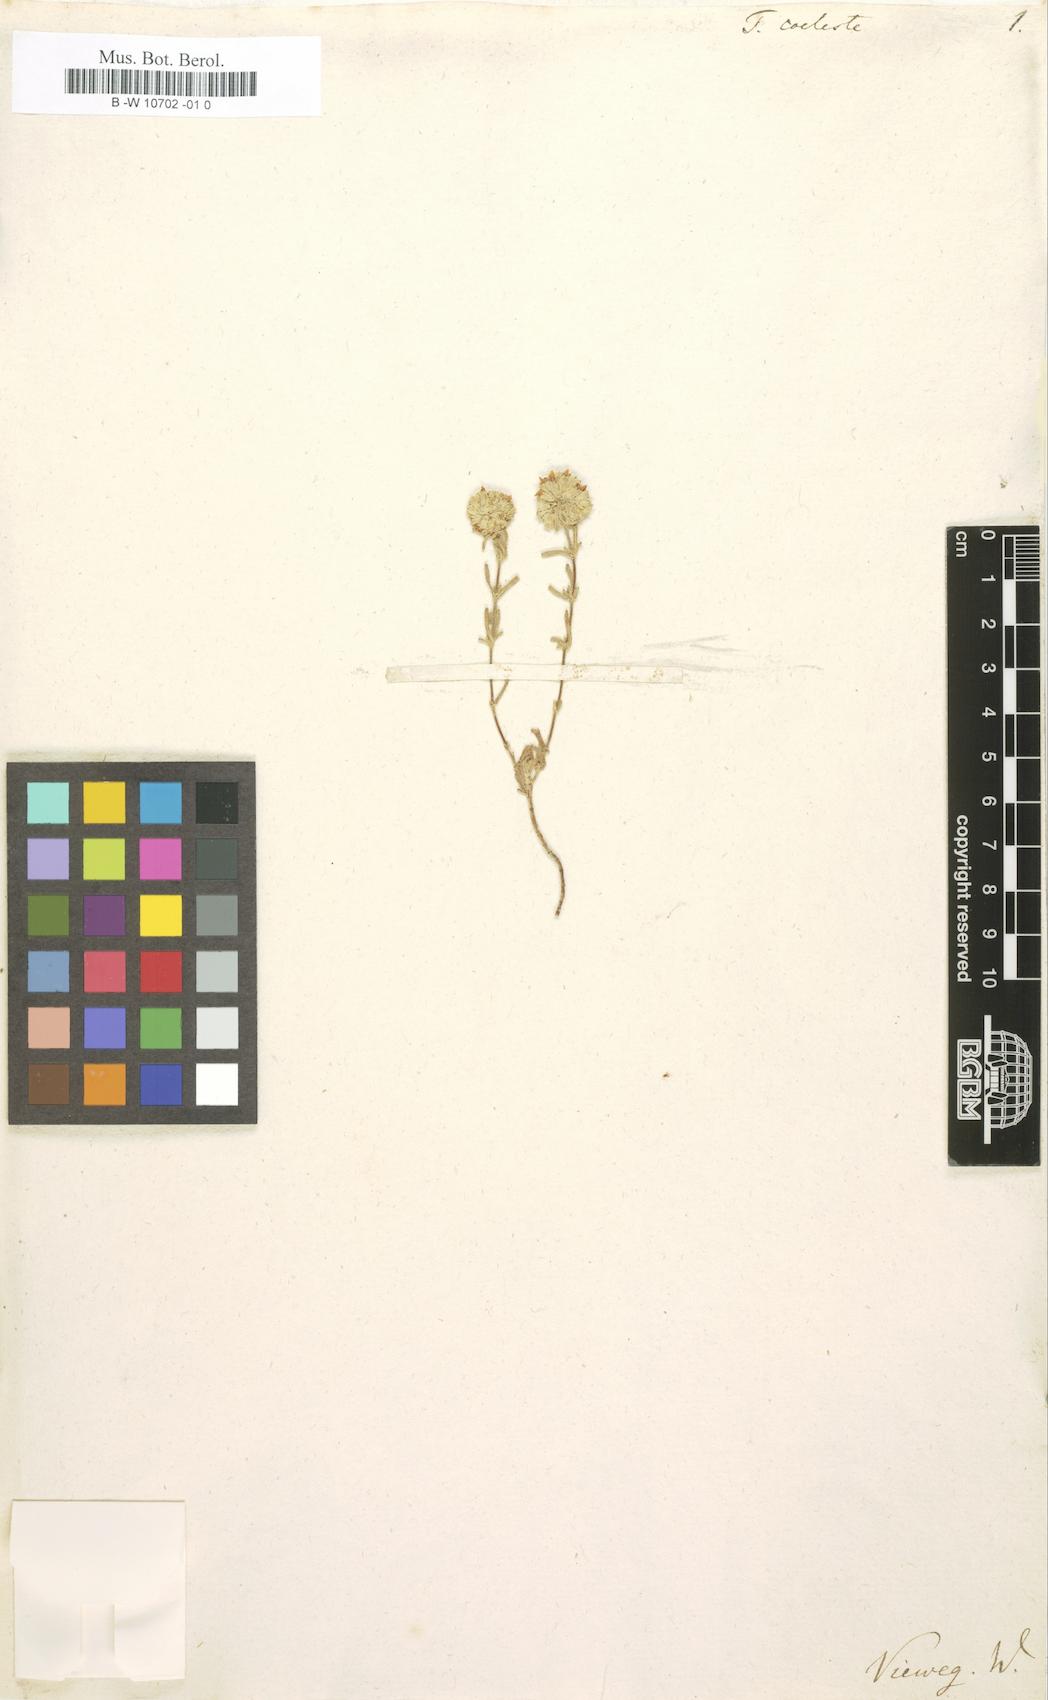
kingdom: Plantae
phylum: Tracheophyta
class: Magnoliopsida
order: Lamiales
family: Lamiaceae
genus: Teucrium
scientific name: Teucrium coeleste
